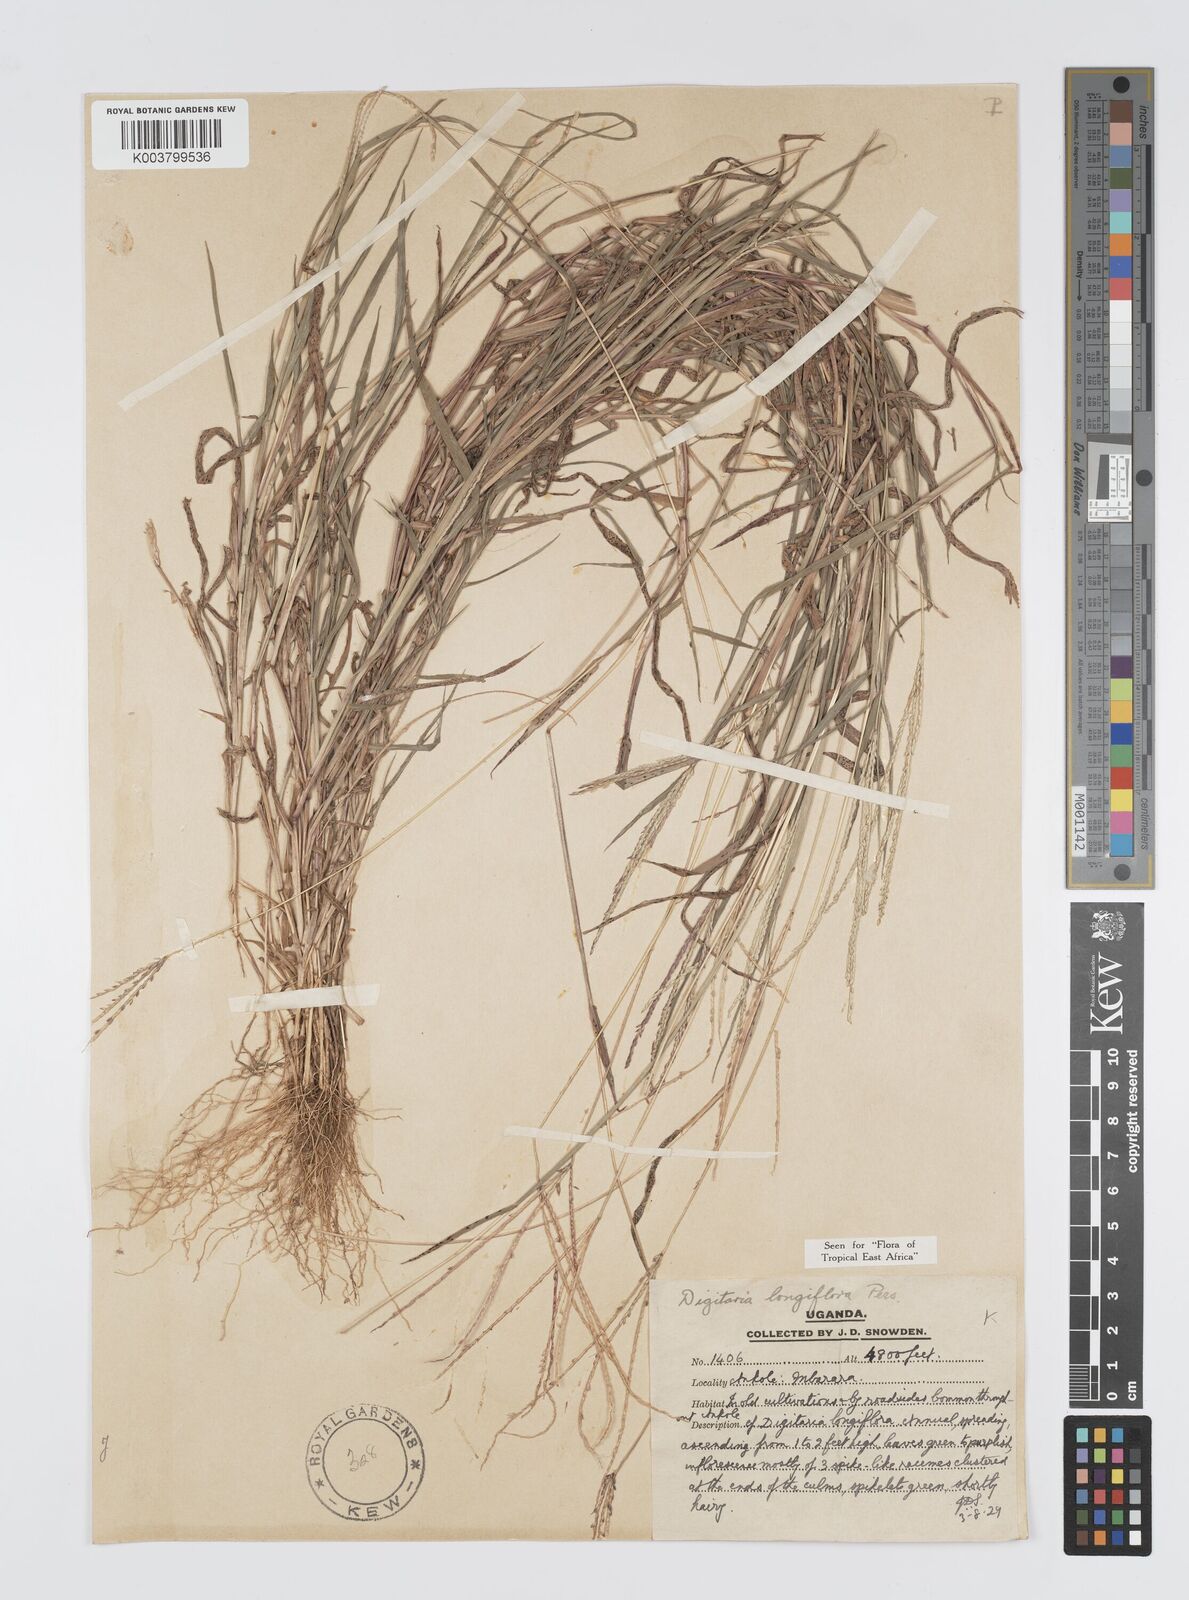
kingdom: Plantae
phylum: Tracheophyta
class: Liliopsida
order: Poales
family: Poaceae
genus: Digitaria
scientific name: Digitaria longiflora
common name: Wire crabgrass
